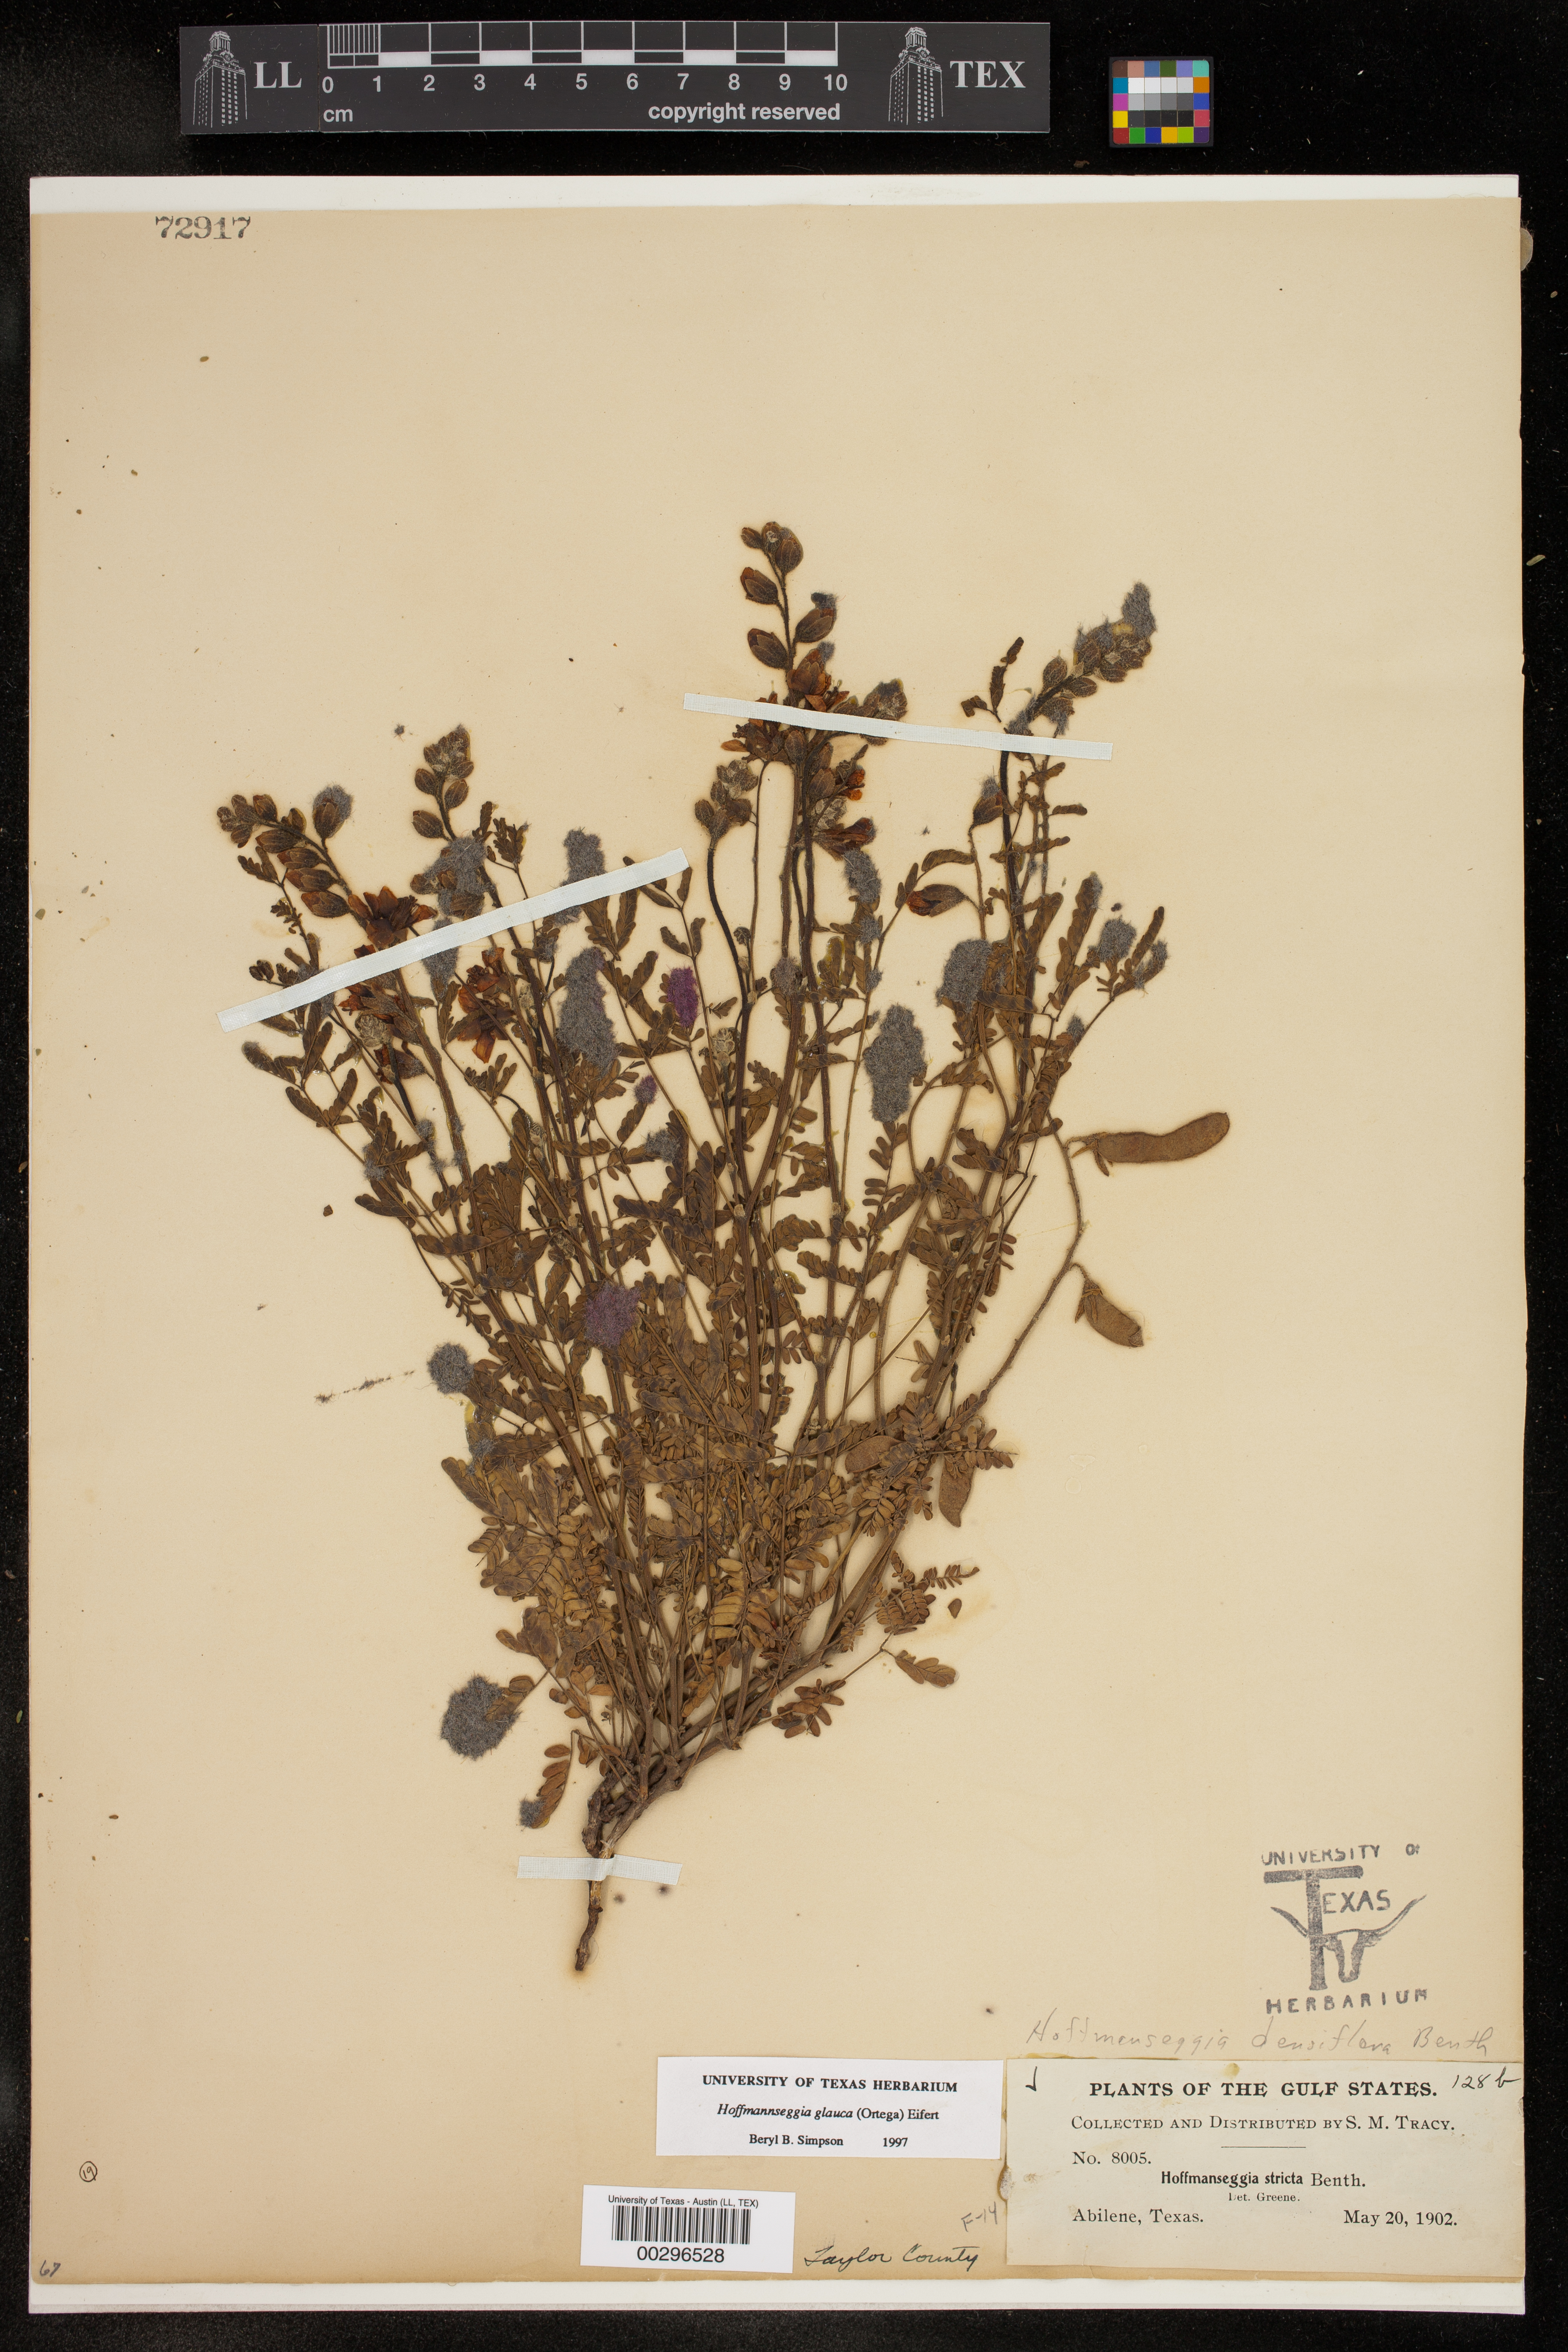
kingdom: Plantae
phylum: Tracheophyta
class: Magnoliopsida
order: Fabales
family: Fabaceae
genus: Hoffmannseggia
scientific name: Hoffmannseggia glauca
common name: Pignut
